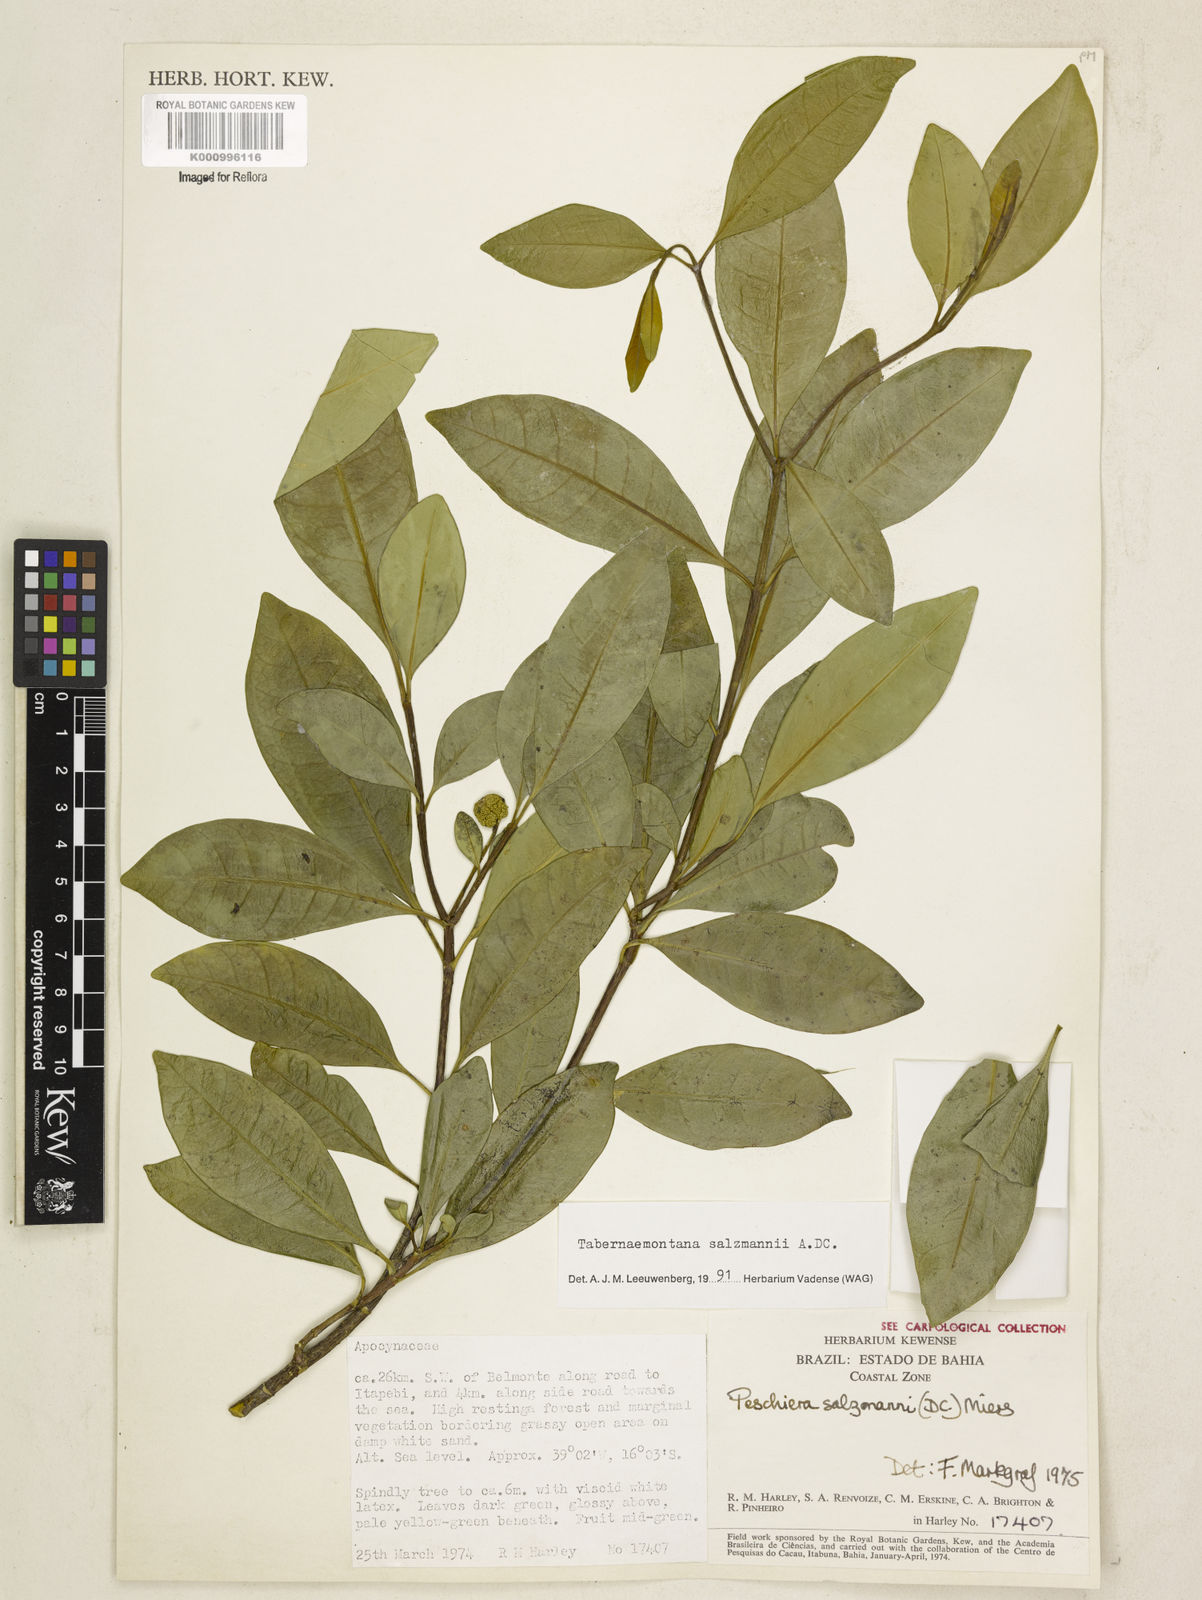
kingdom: Plantae
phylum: Tracheophyta
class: Magnoliopsida
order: Gentianales
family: Apocynaceae
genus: Tabernaemontana
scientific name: Tabernaemontana salzmannii
